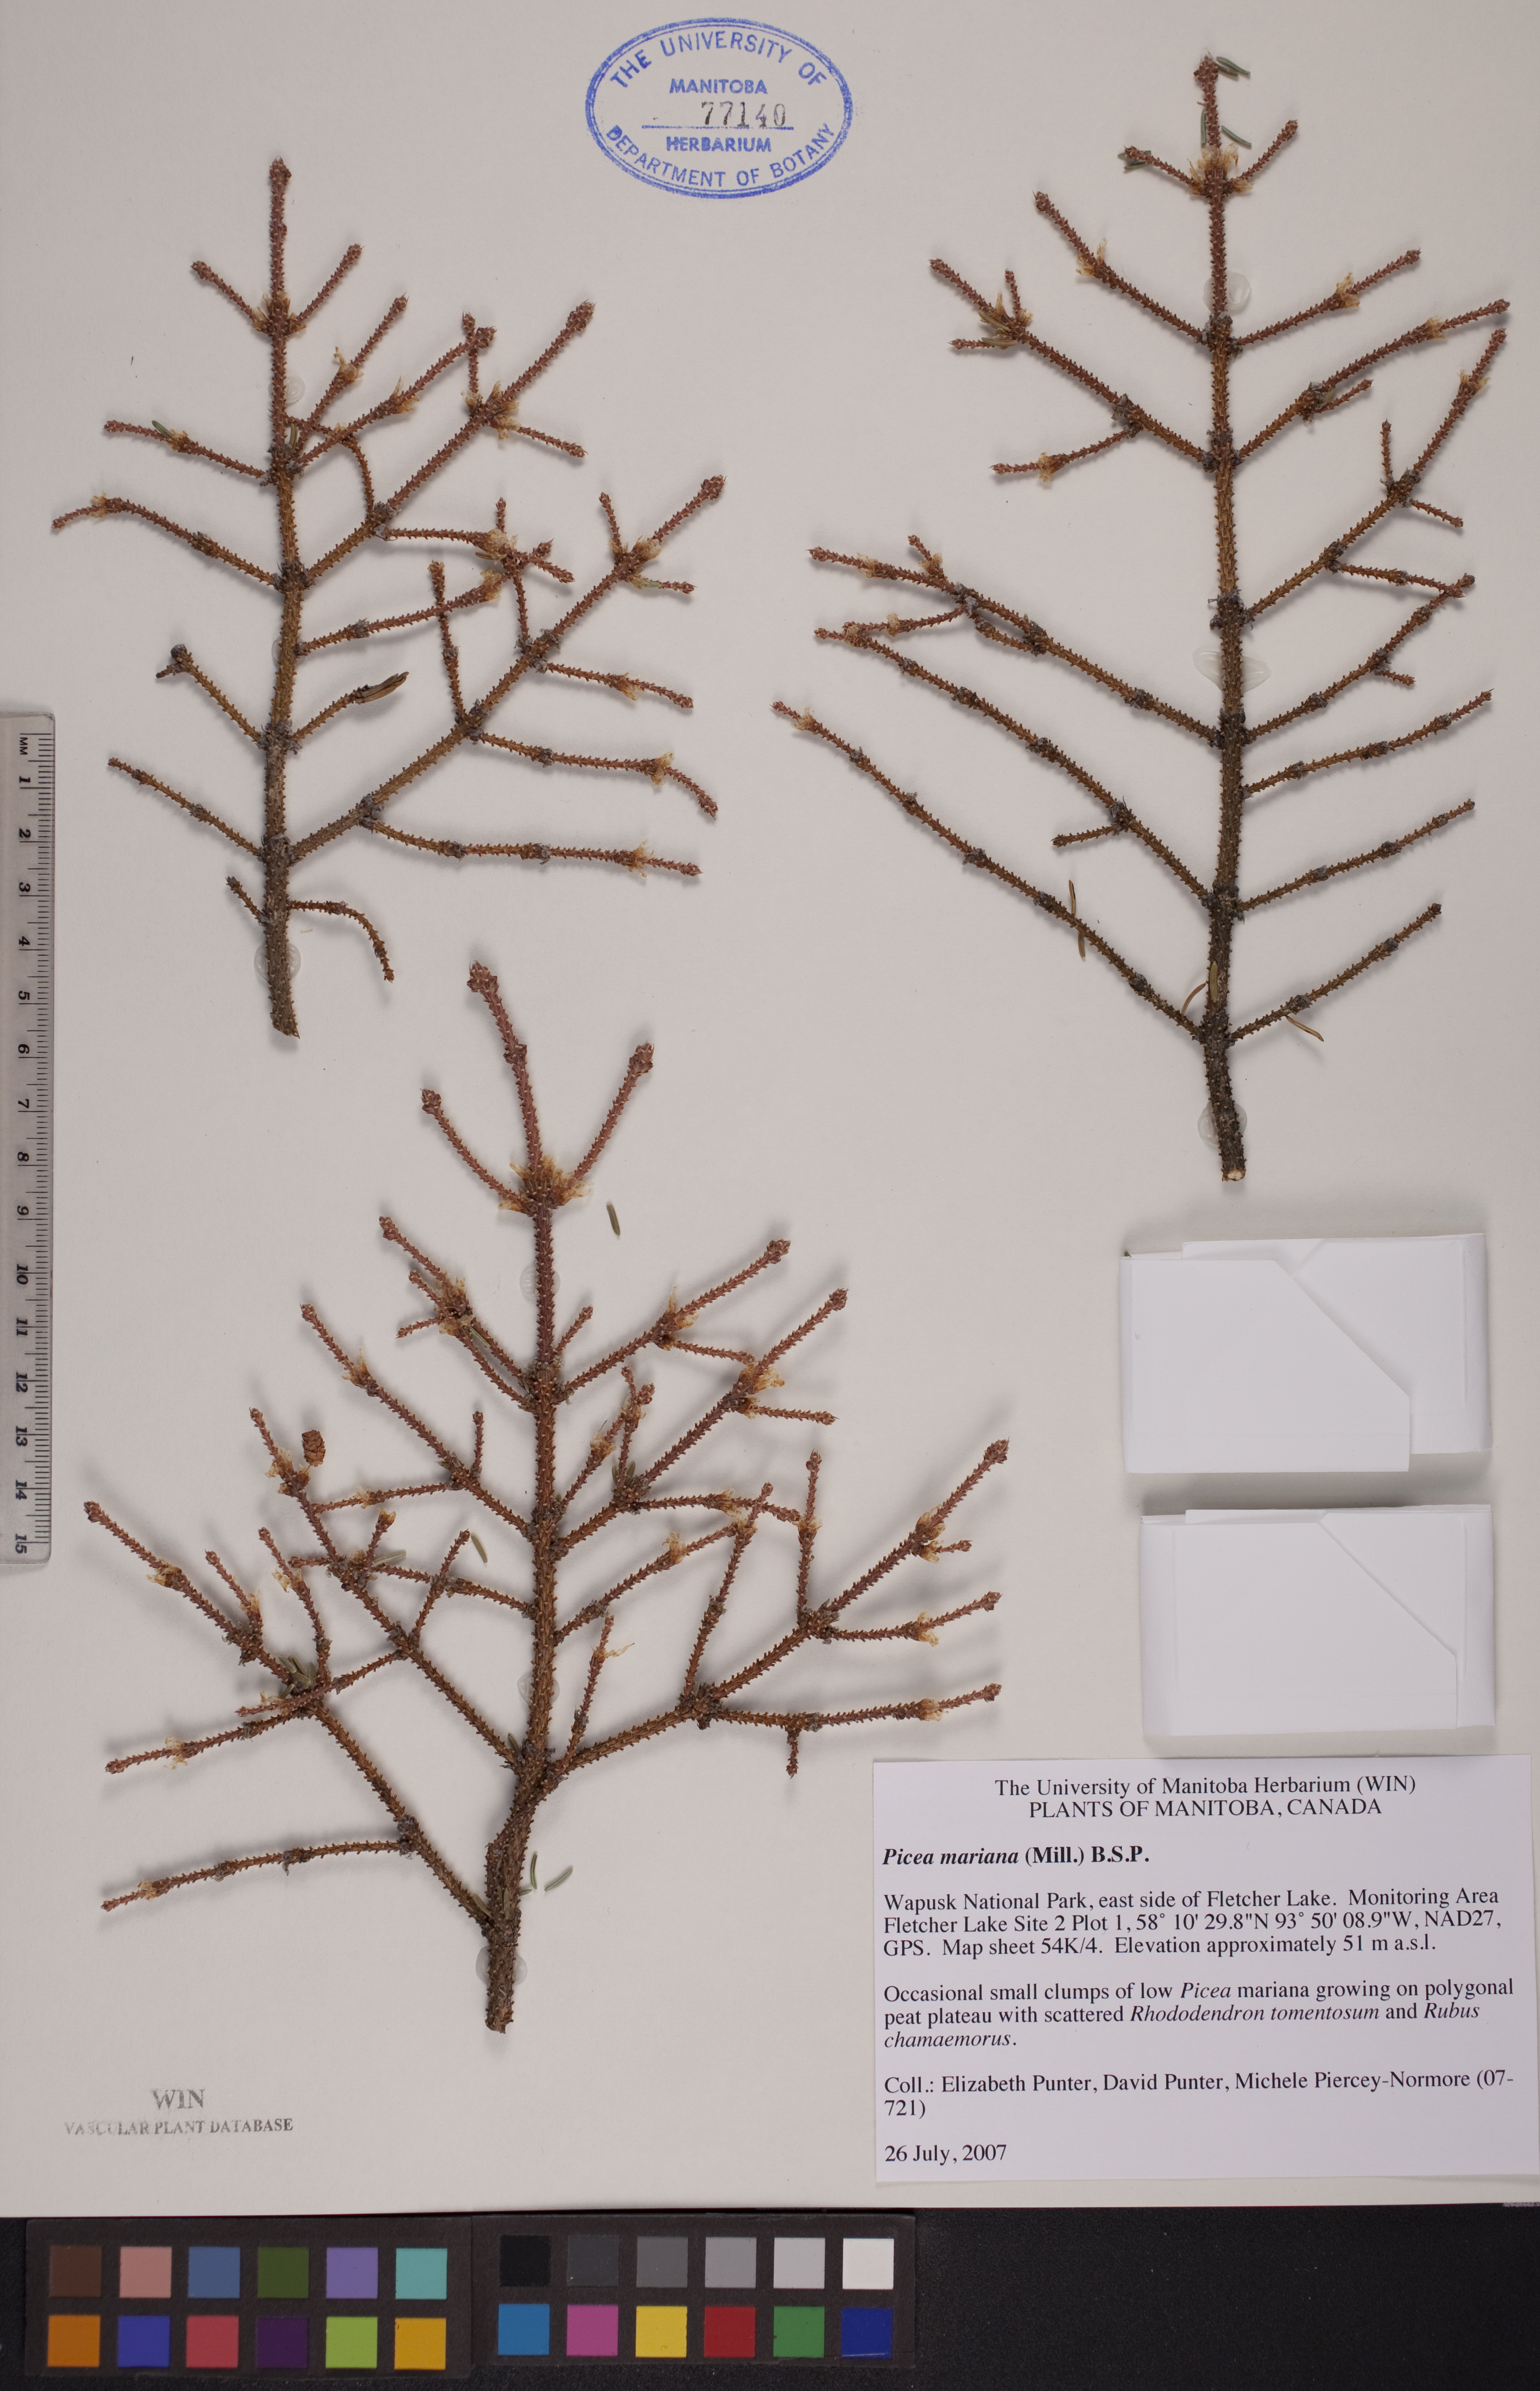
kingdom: Plantae
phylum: Tracheophyta
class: Pinopsida
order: Pinales
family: Pinaceae
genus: Picea
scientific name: Picea mariana
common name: Black spruce
